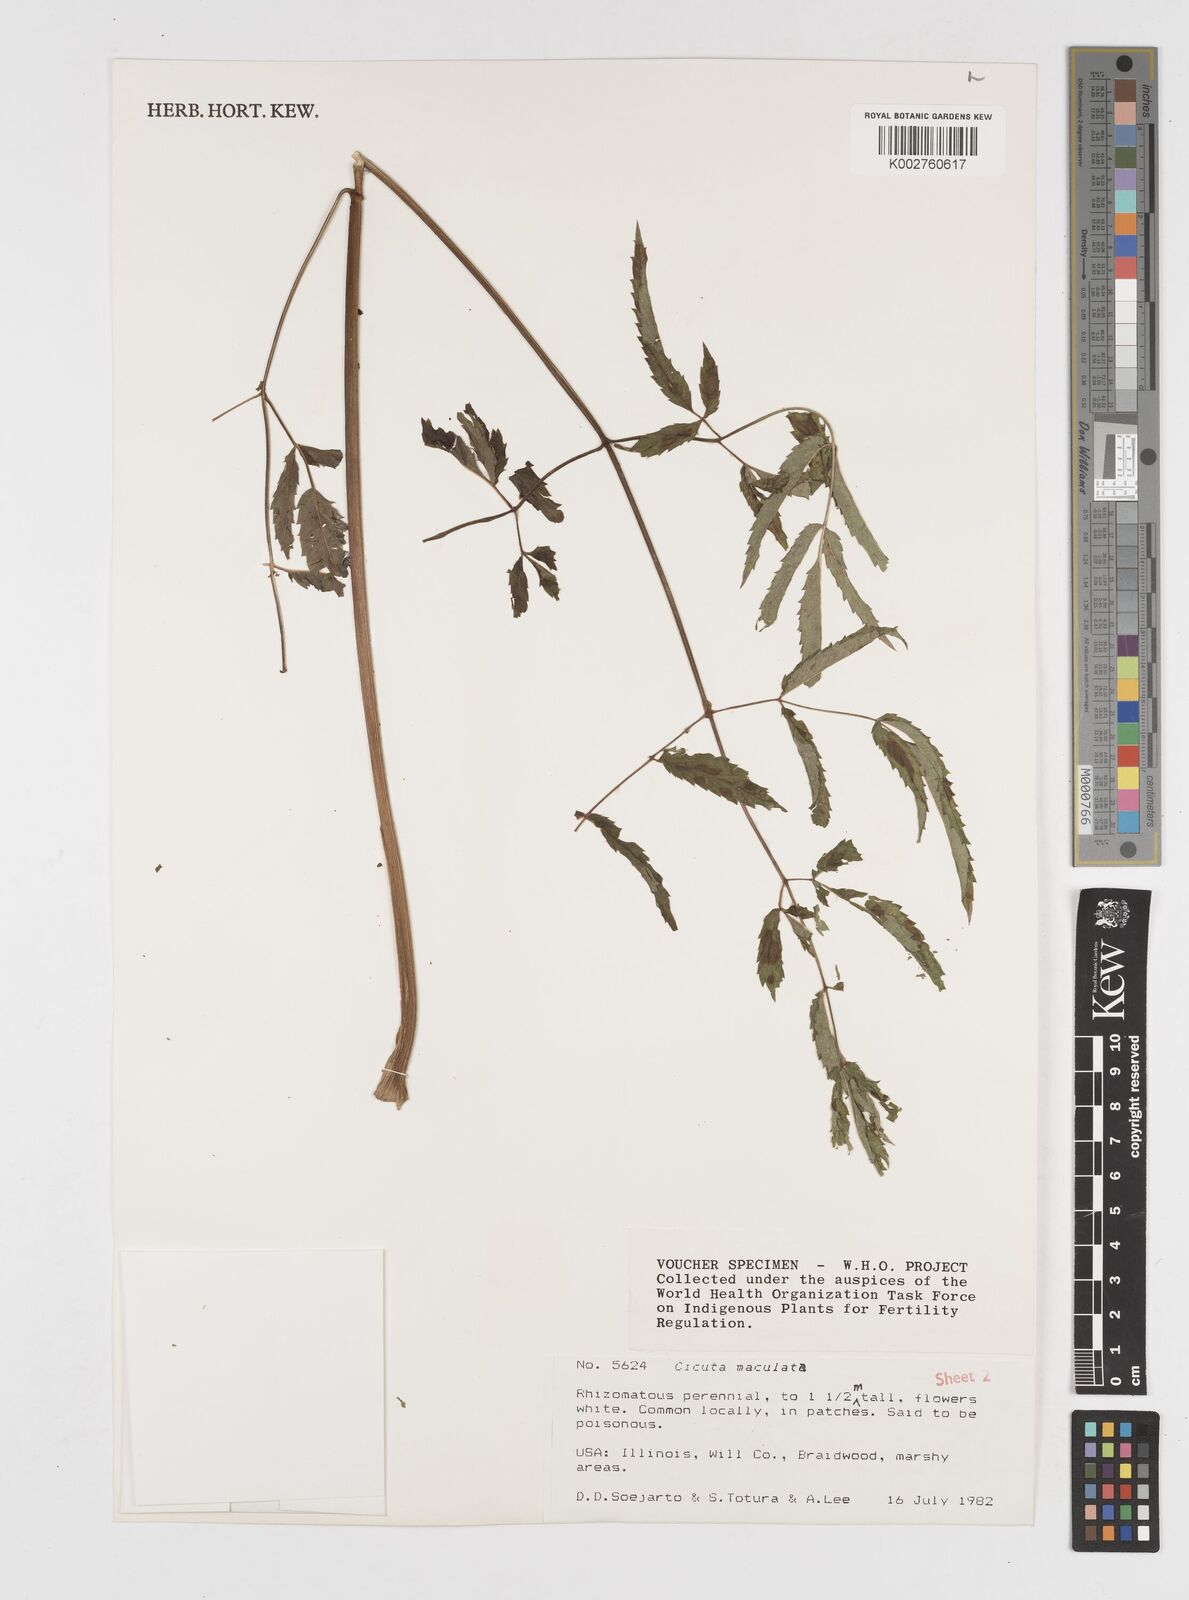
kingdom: Plantae
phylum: Tracheophyta
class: Magnoliopsida
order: Apiales
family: Apiaceae
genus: Cicuta
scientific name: Cicuta maculata
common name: Spotted cowbane
